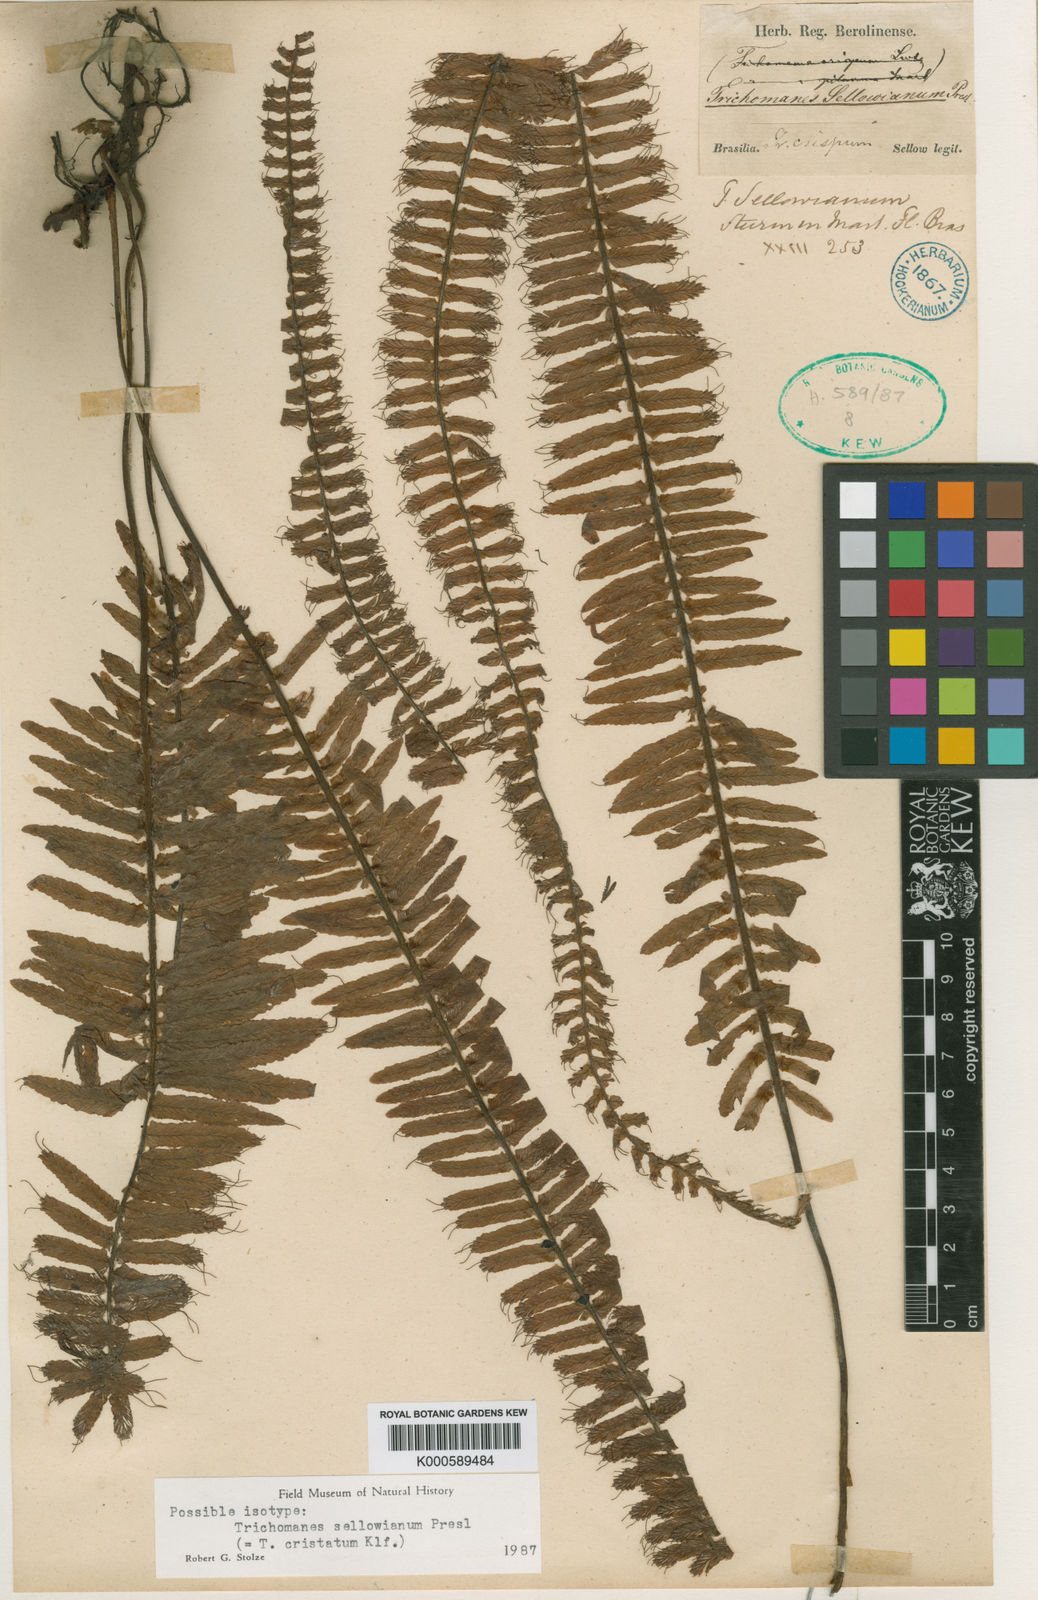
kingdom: Plantae
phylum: Tracheophyta
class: Polypodiopsida
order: Hymenophyllales
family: Hymenophyllaceae
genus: Trichomanes
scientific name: Trichomanes cristatum
